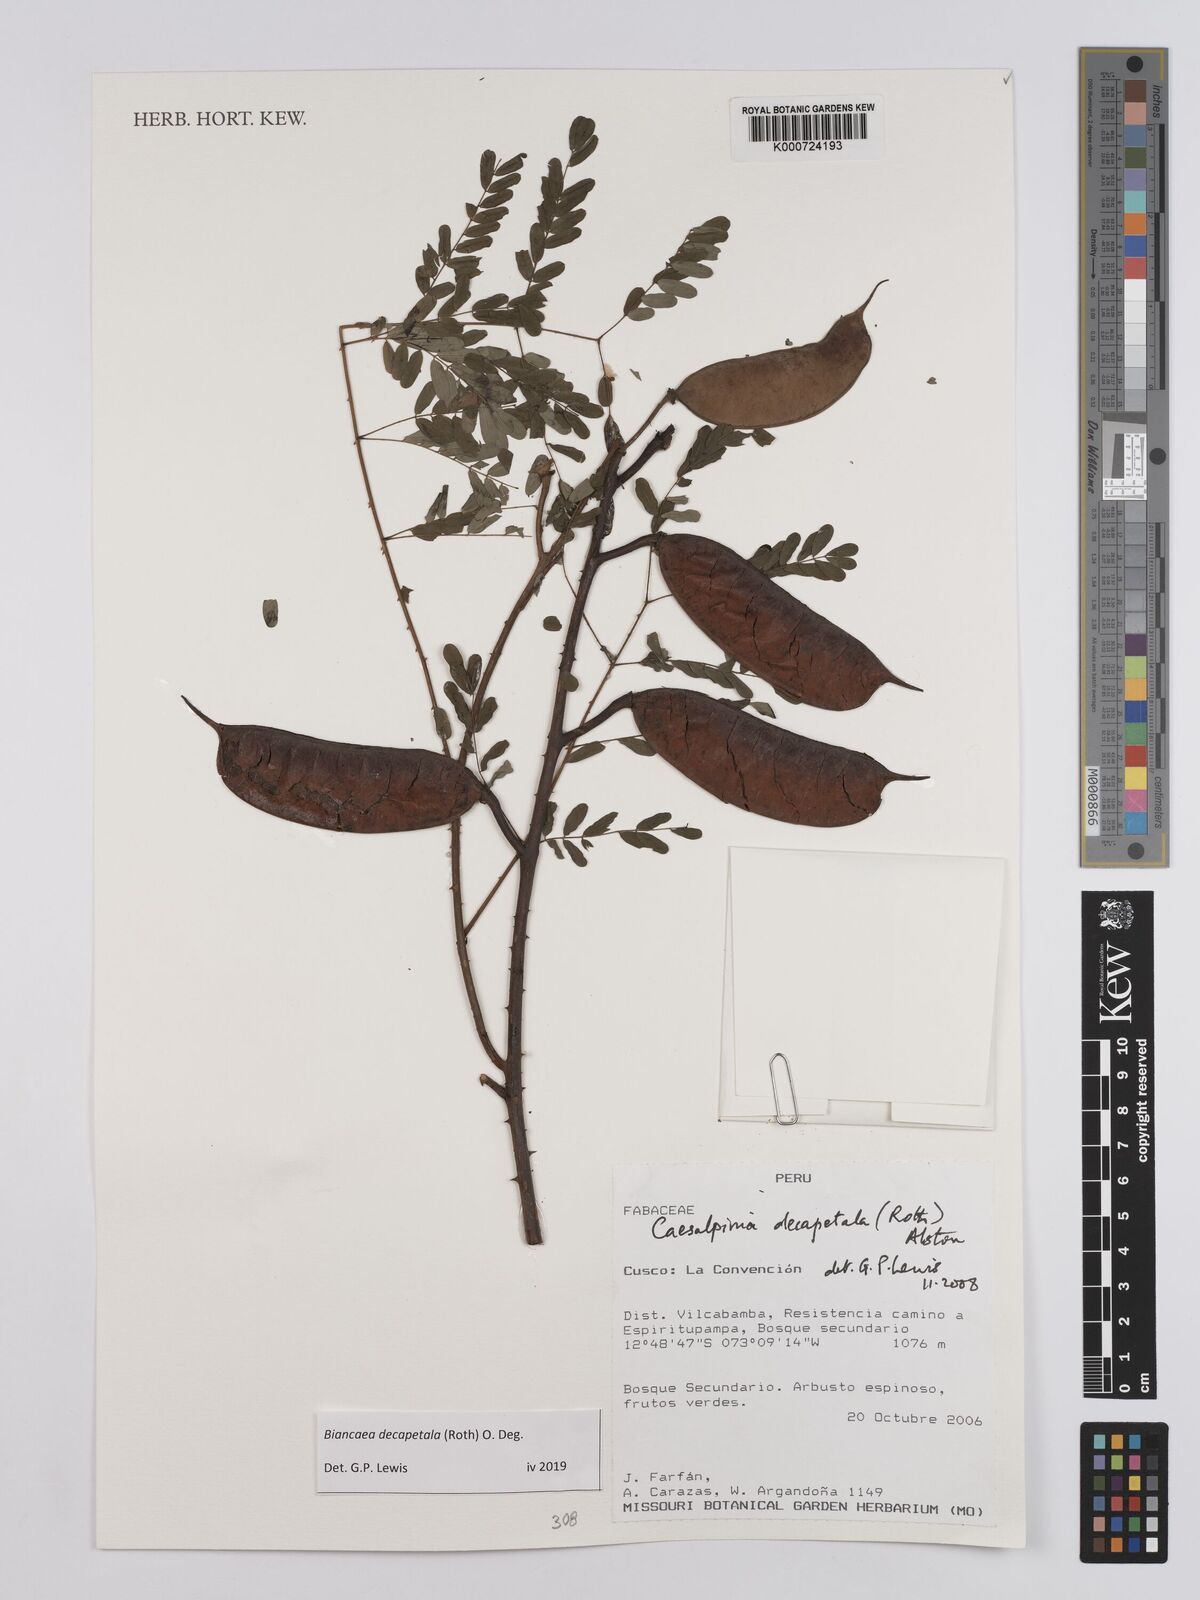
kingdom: Plantae
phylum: Tracheophyta
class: Magnoliopsida
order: Fabales
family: Fabaceae
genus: Biancaea
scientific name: Biancaea decapetala
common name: Cat's claw
